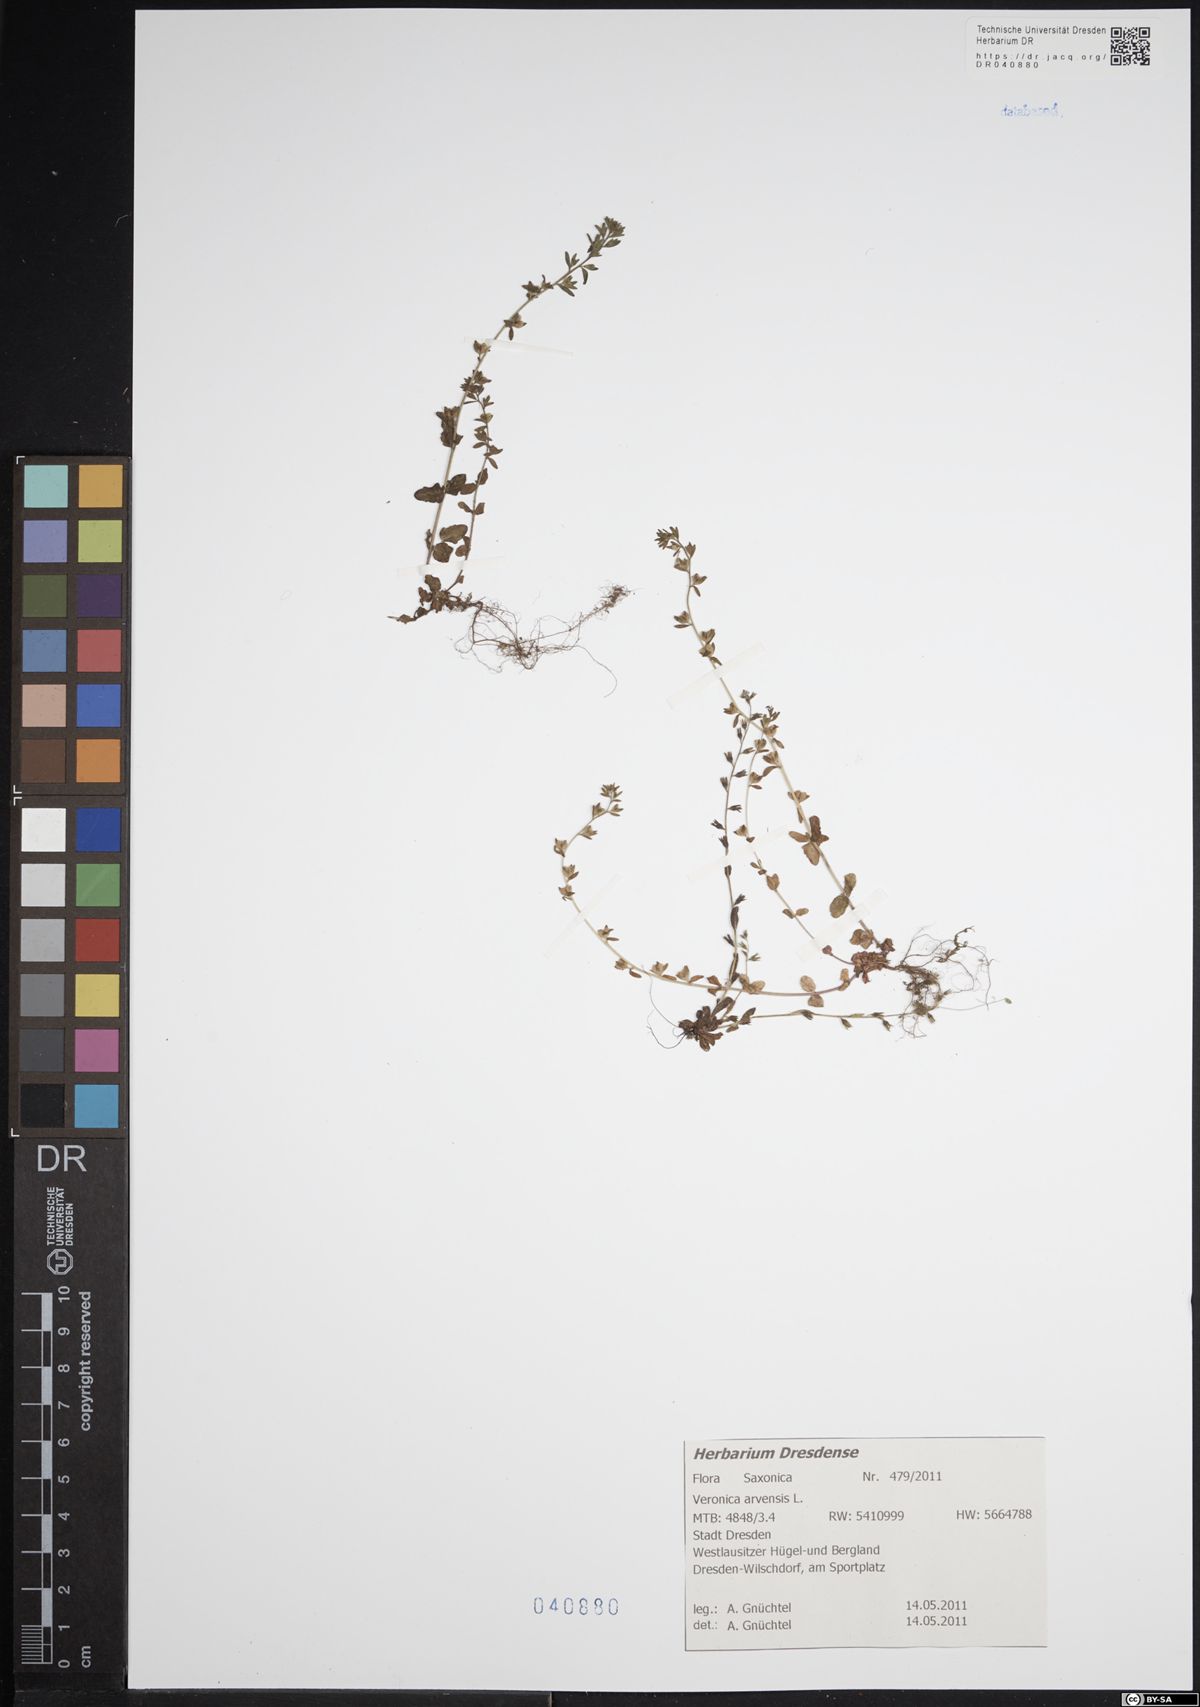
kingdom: Plantae
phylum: Tracheophyta
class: Magnoliopsida
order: Lamiales
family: Plantaginaceae
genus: Veronica
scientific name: Veronica arvensis
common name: Corn speedwell
